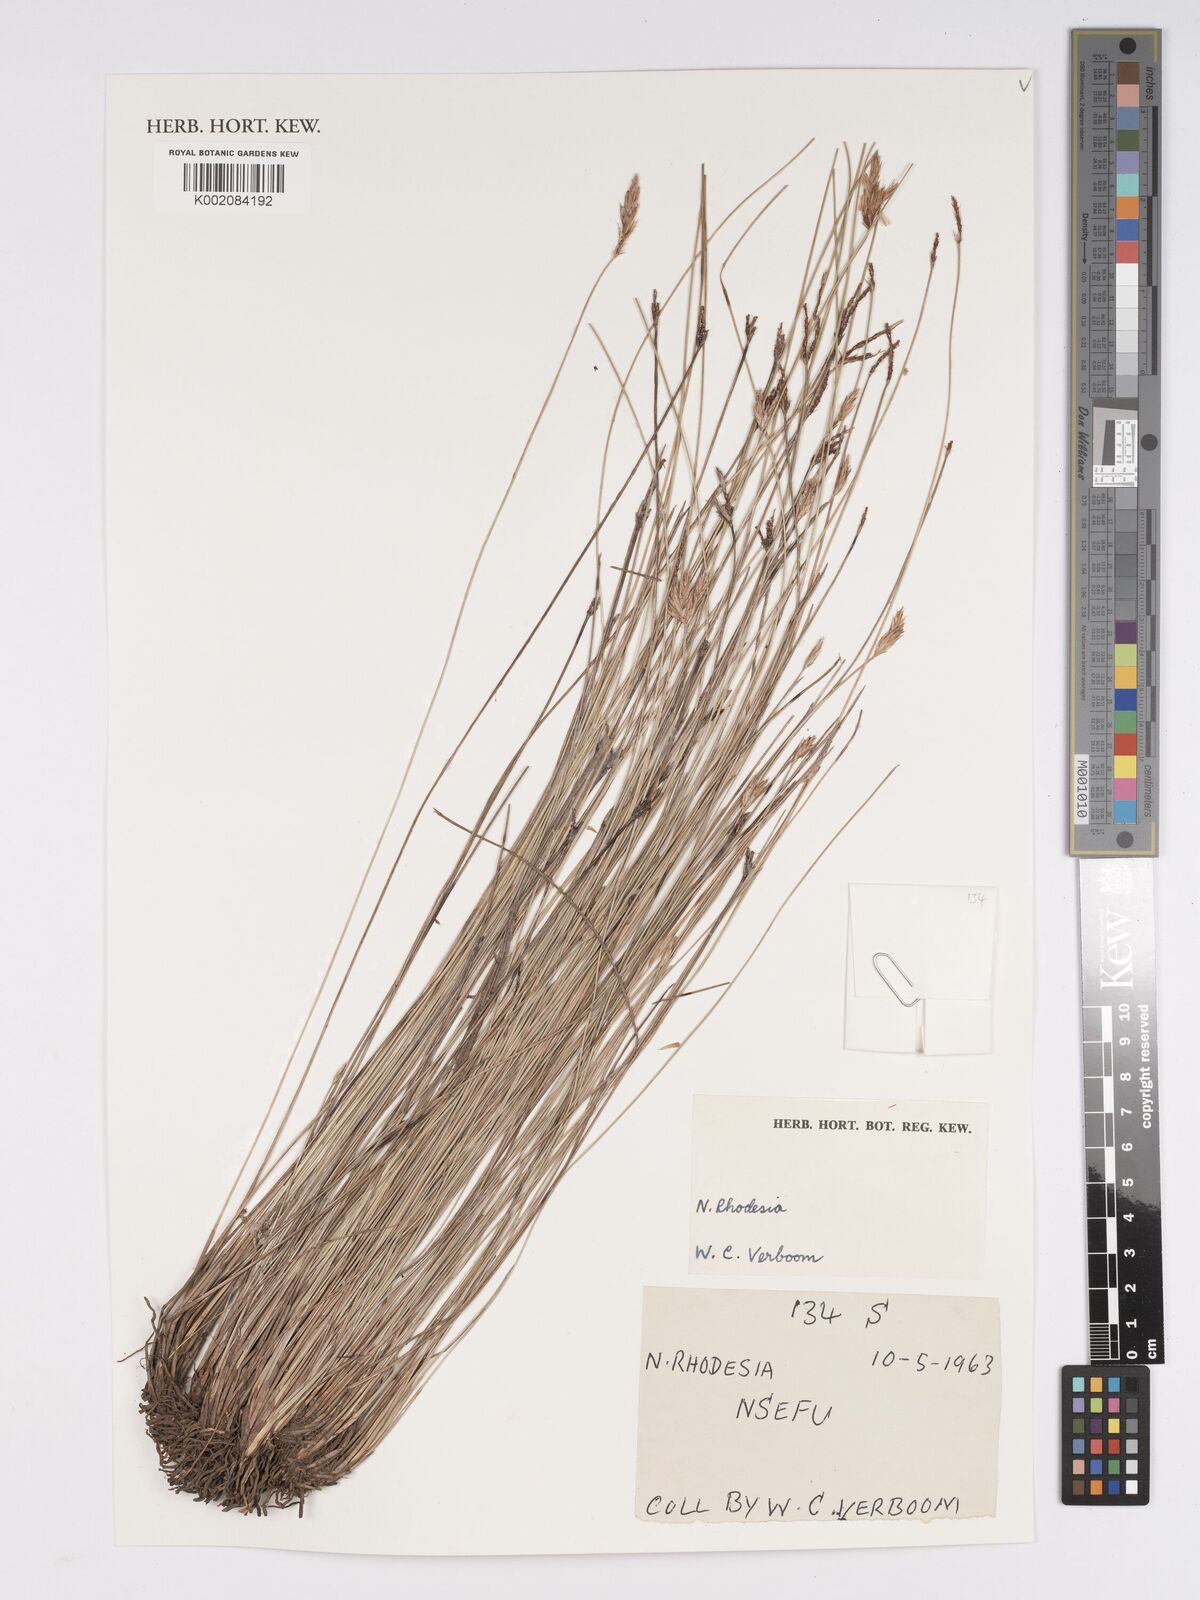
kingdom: Plantae
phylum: Tracheophyta
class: Liliopsida
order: Poales
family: Cyperaceae
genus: Bulbostylis
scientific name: Bulbostylis
